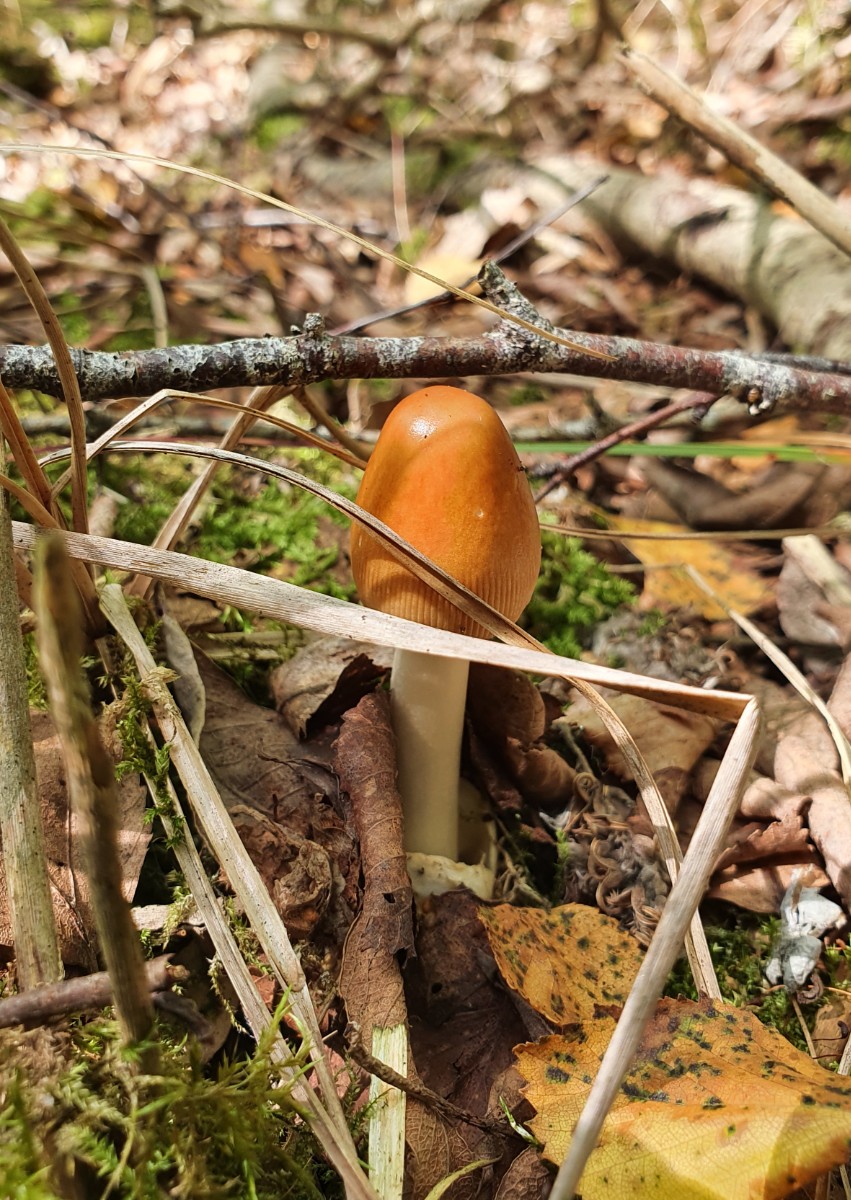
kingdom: Fungi
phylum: Basidiomycota
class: Agaricomycetes
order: Agaricales
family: Amanitaceae
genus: Amanita
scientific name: Amanita fulva
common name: brun kam-fluesvamp
